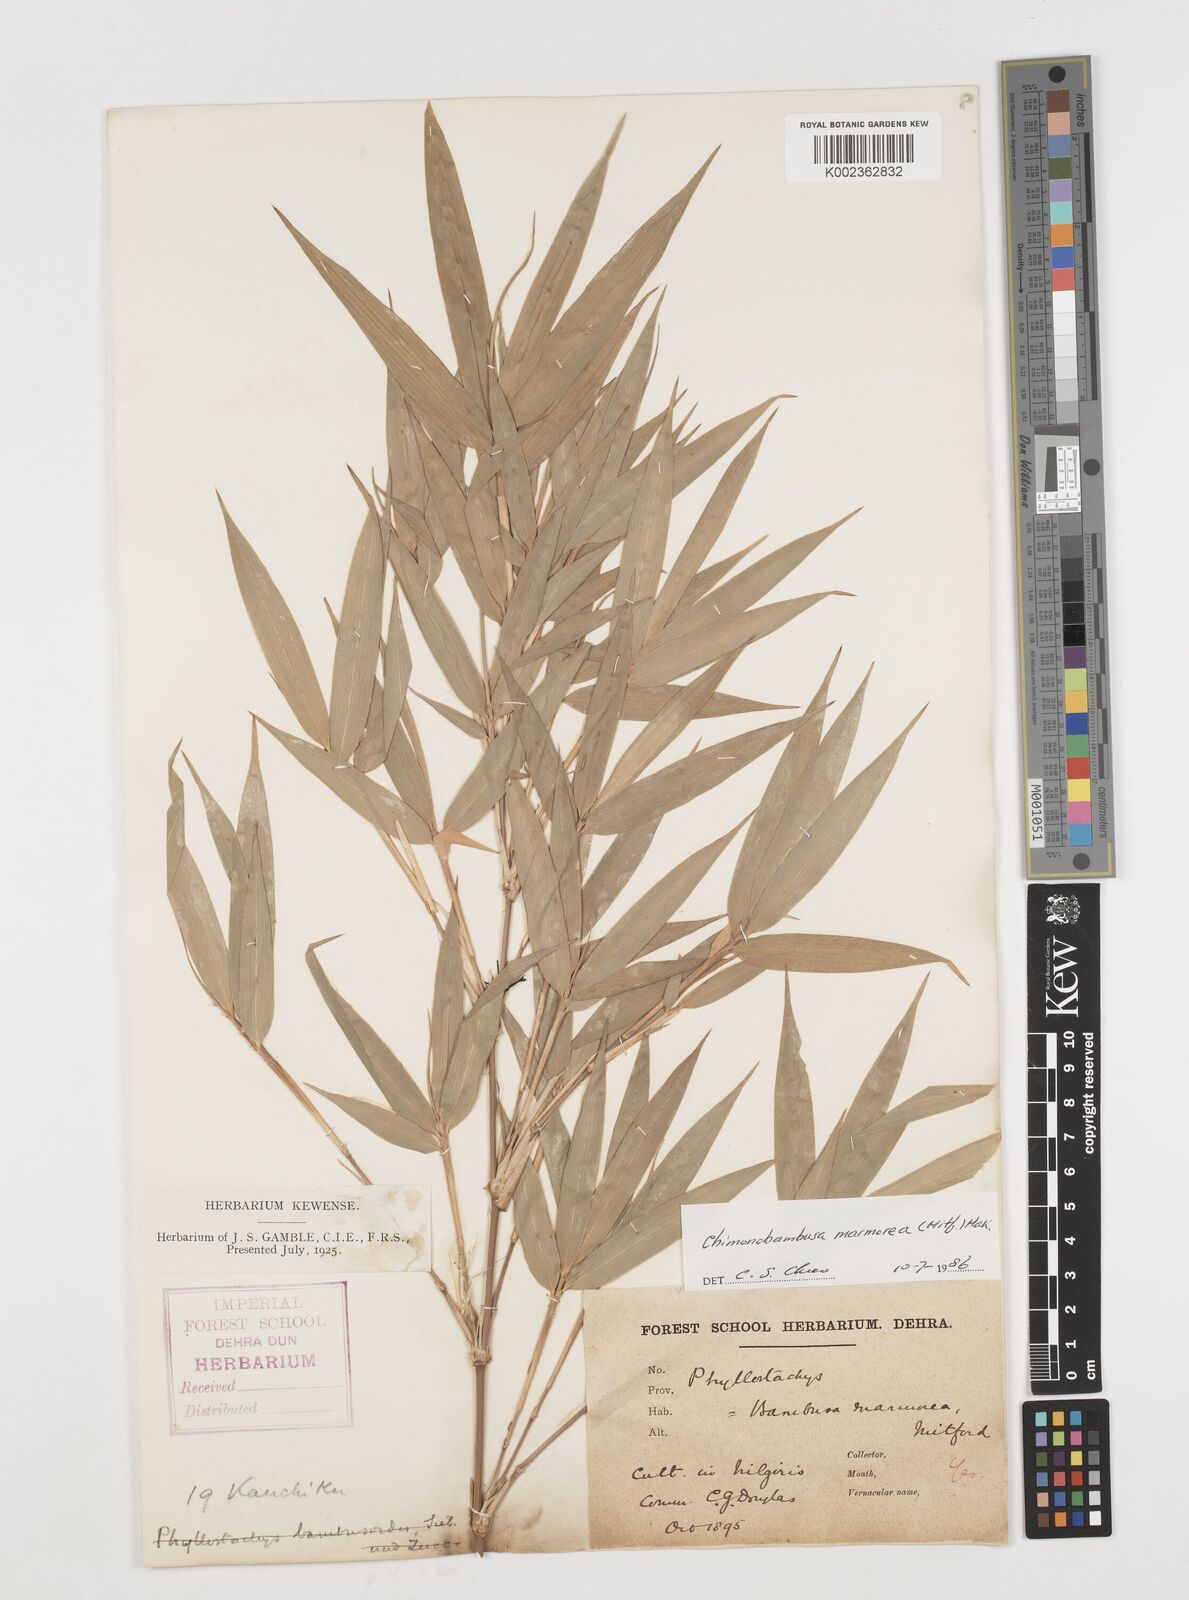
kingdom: Plantae
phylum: Tracheophyta
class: Liliopsida
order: Poales
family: Poaceae
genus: Chimonobambusa
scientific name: Chimonobambusa marmorea
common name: Marbled bamboo
